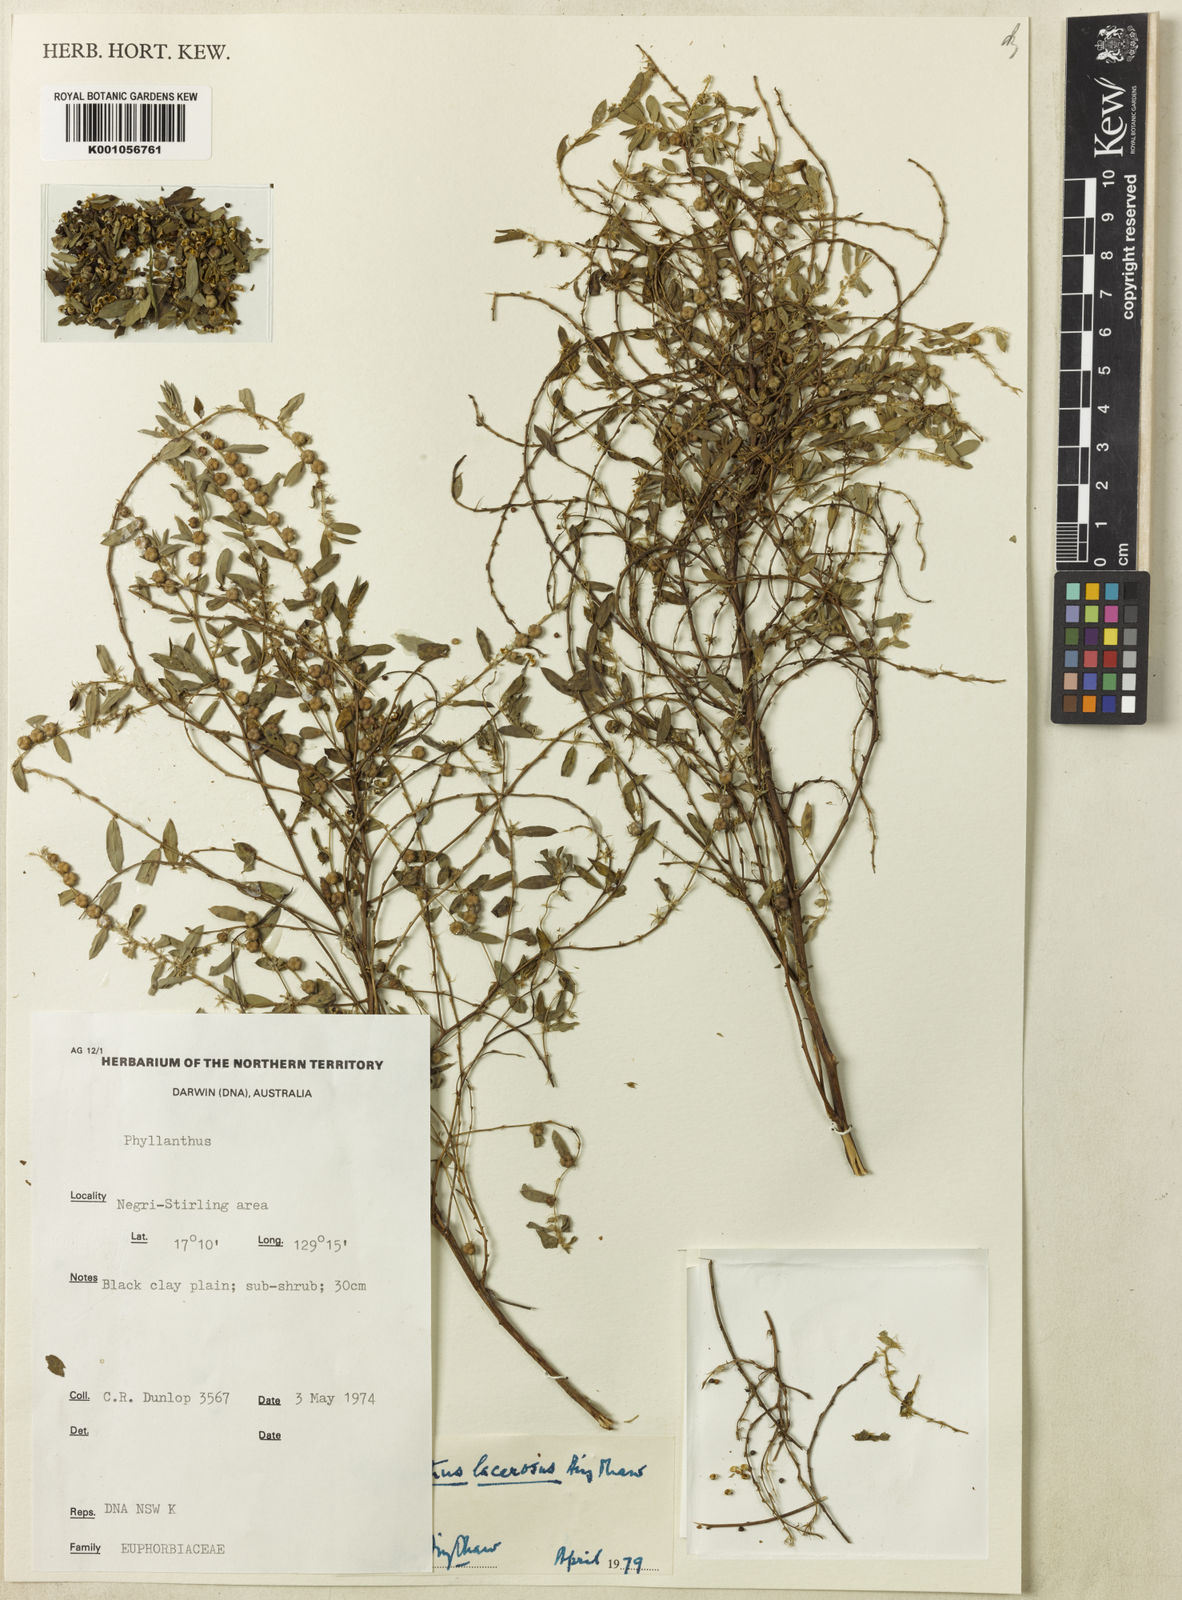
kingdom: Plantae
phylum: Tracheophyta
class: Magnoliopsida
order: Malpighiales
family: Phyllanthaceae
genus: Phyllanthus
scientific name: Phyllanthus lacerosus
